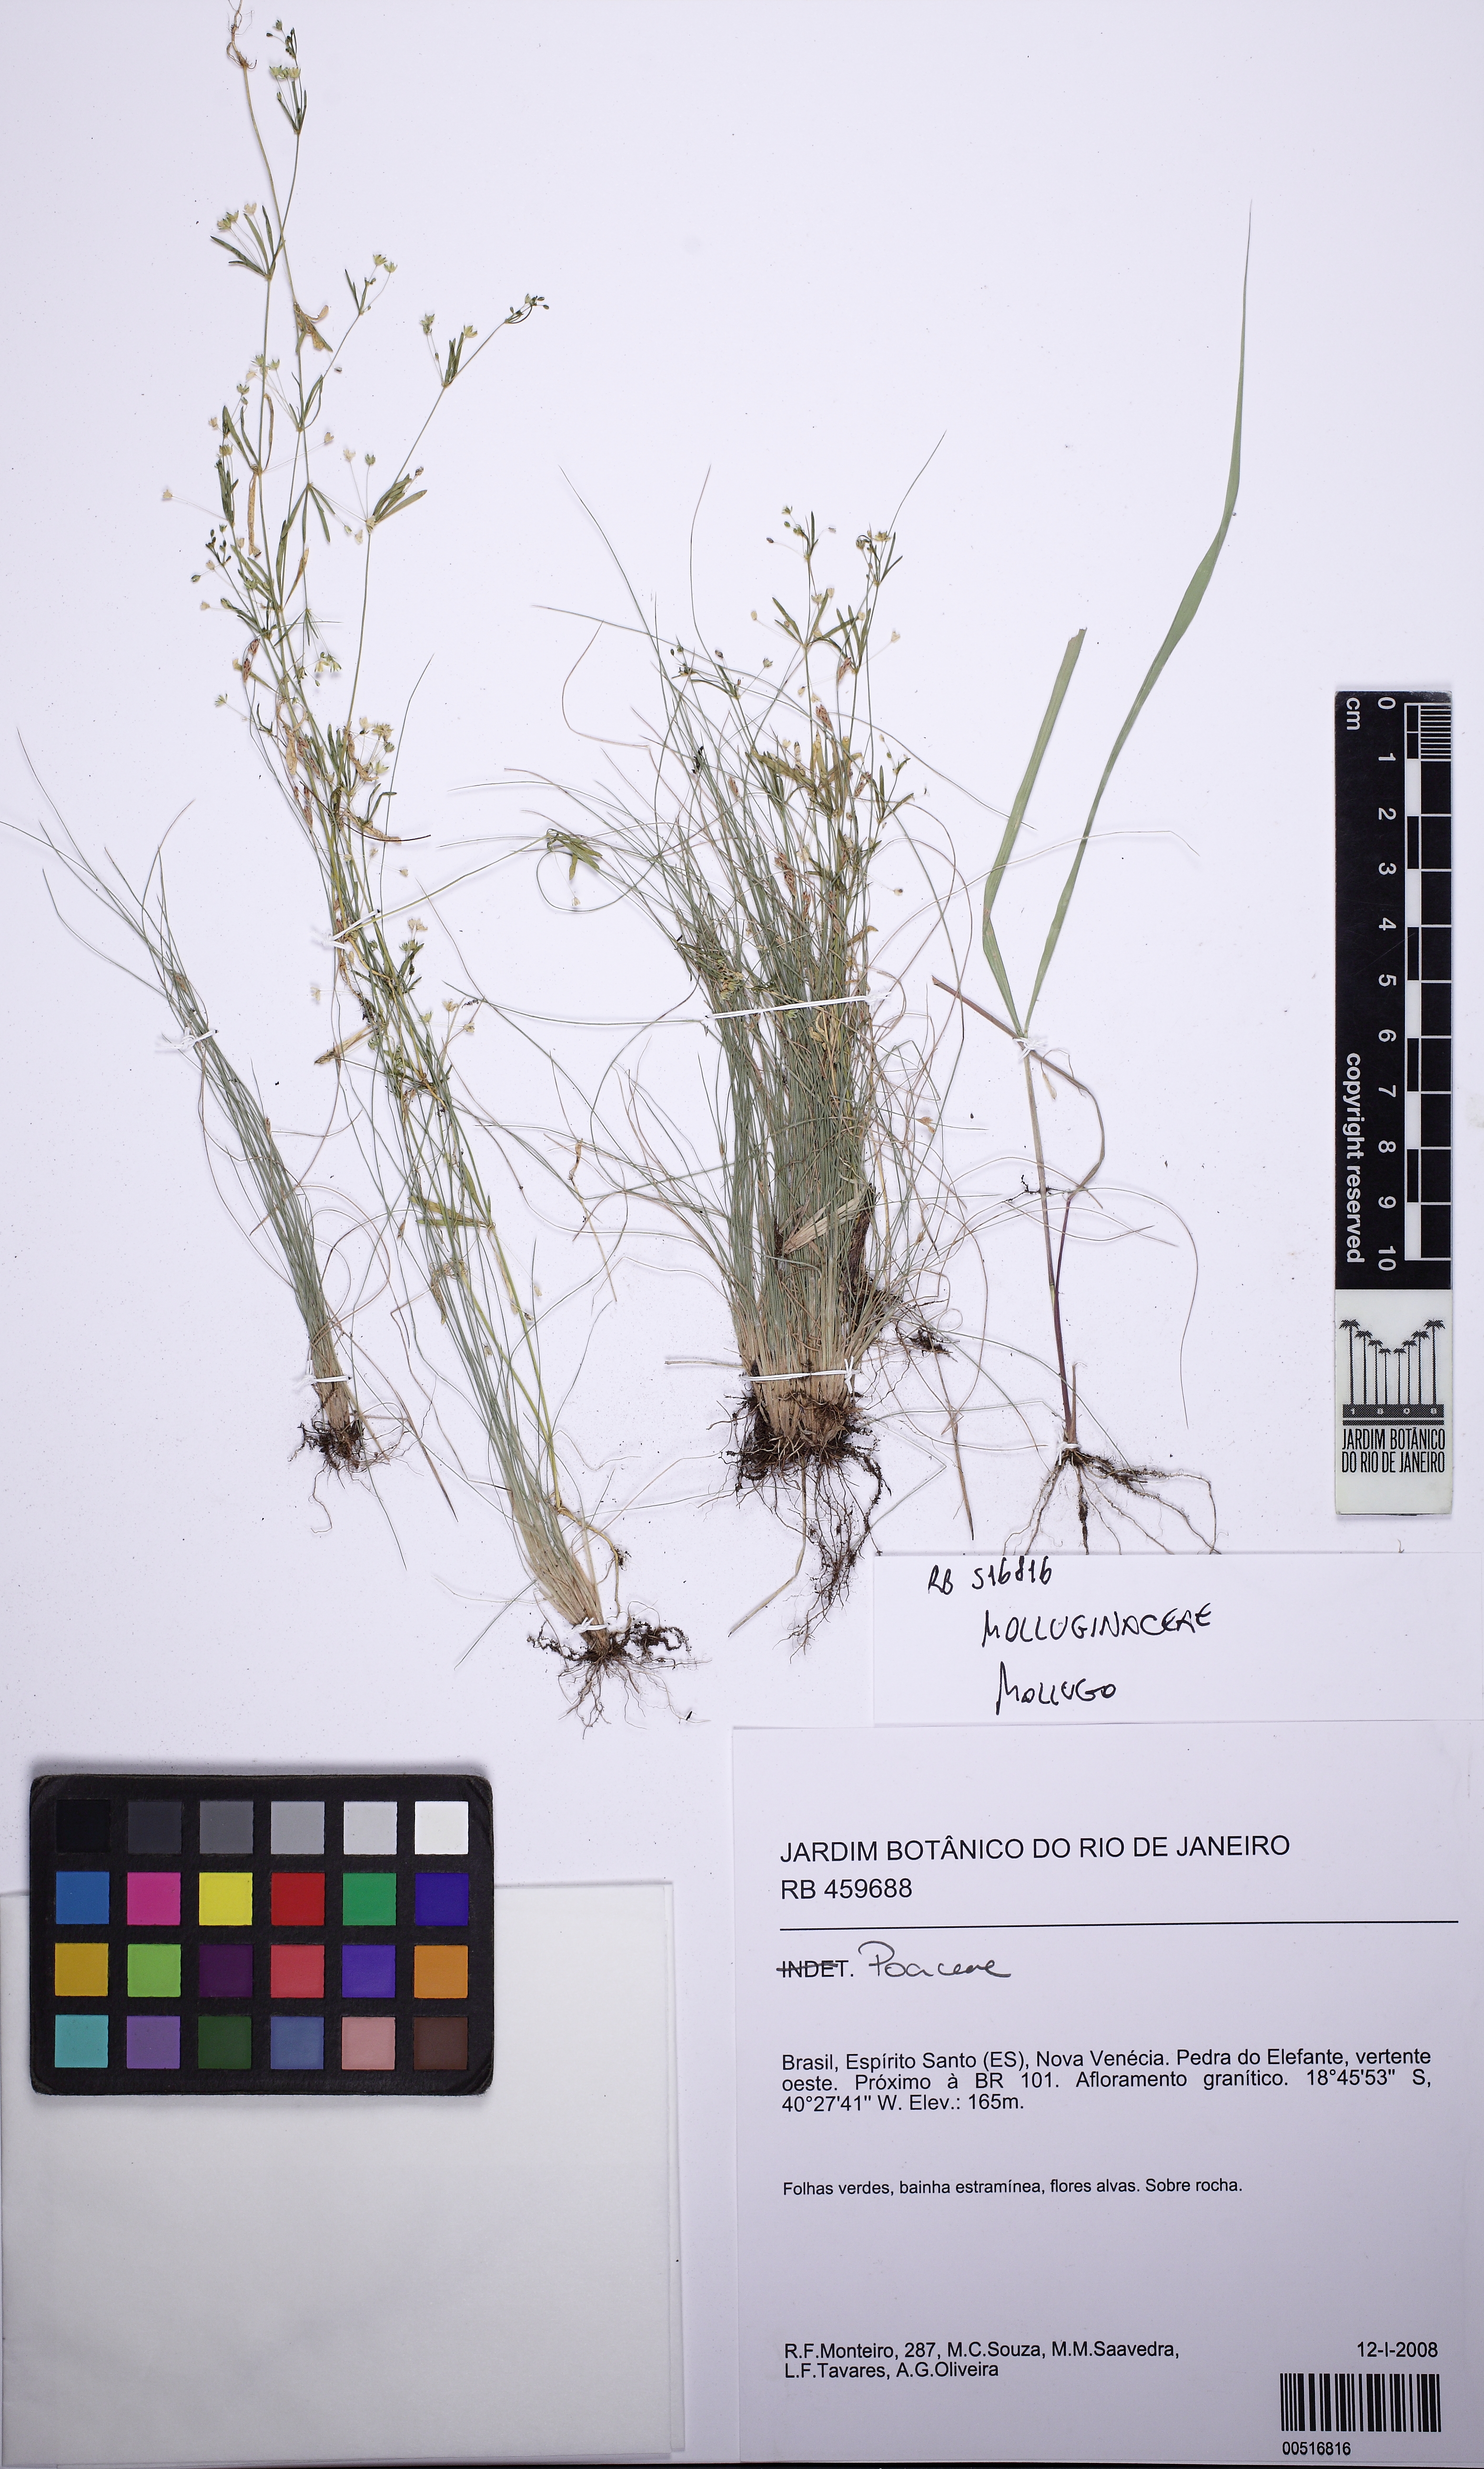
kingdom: Plantae
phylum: Tracheophyta
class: Magnoliopsida
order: Caryophyllales
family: Molluginaceae
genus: Mollugo
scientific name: Mollugo
